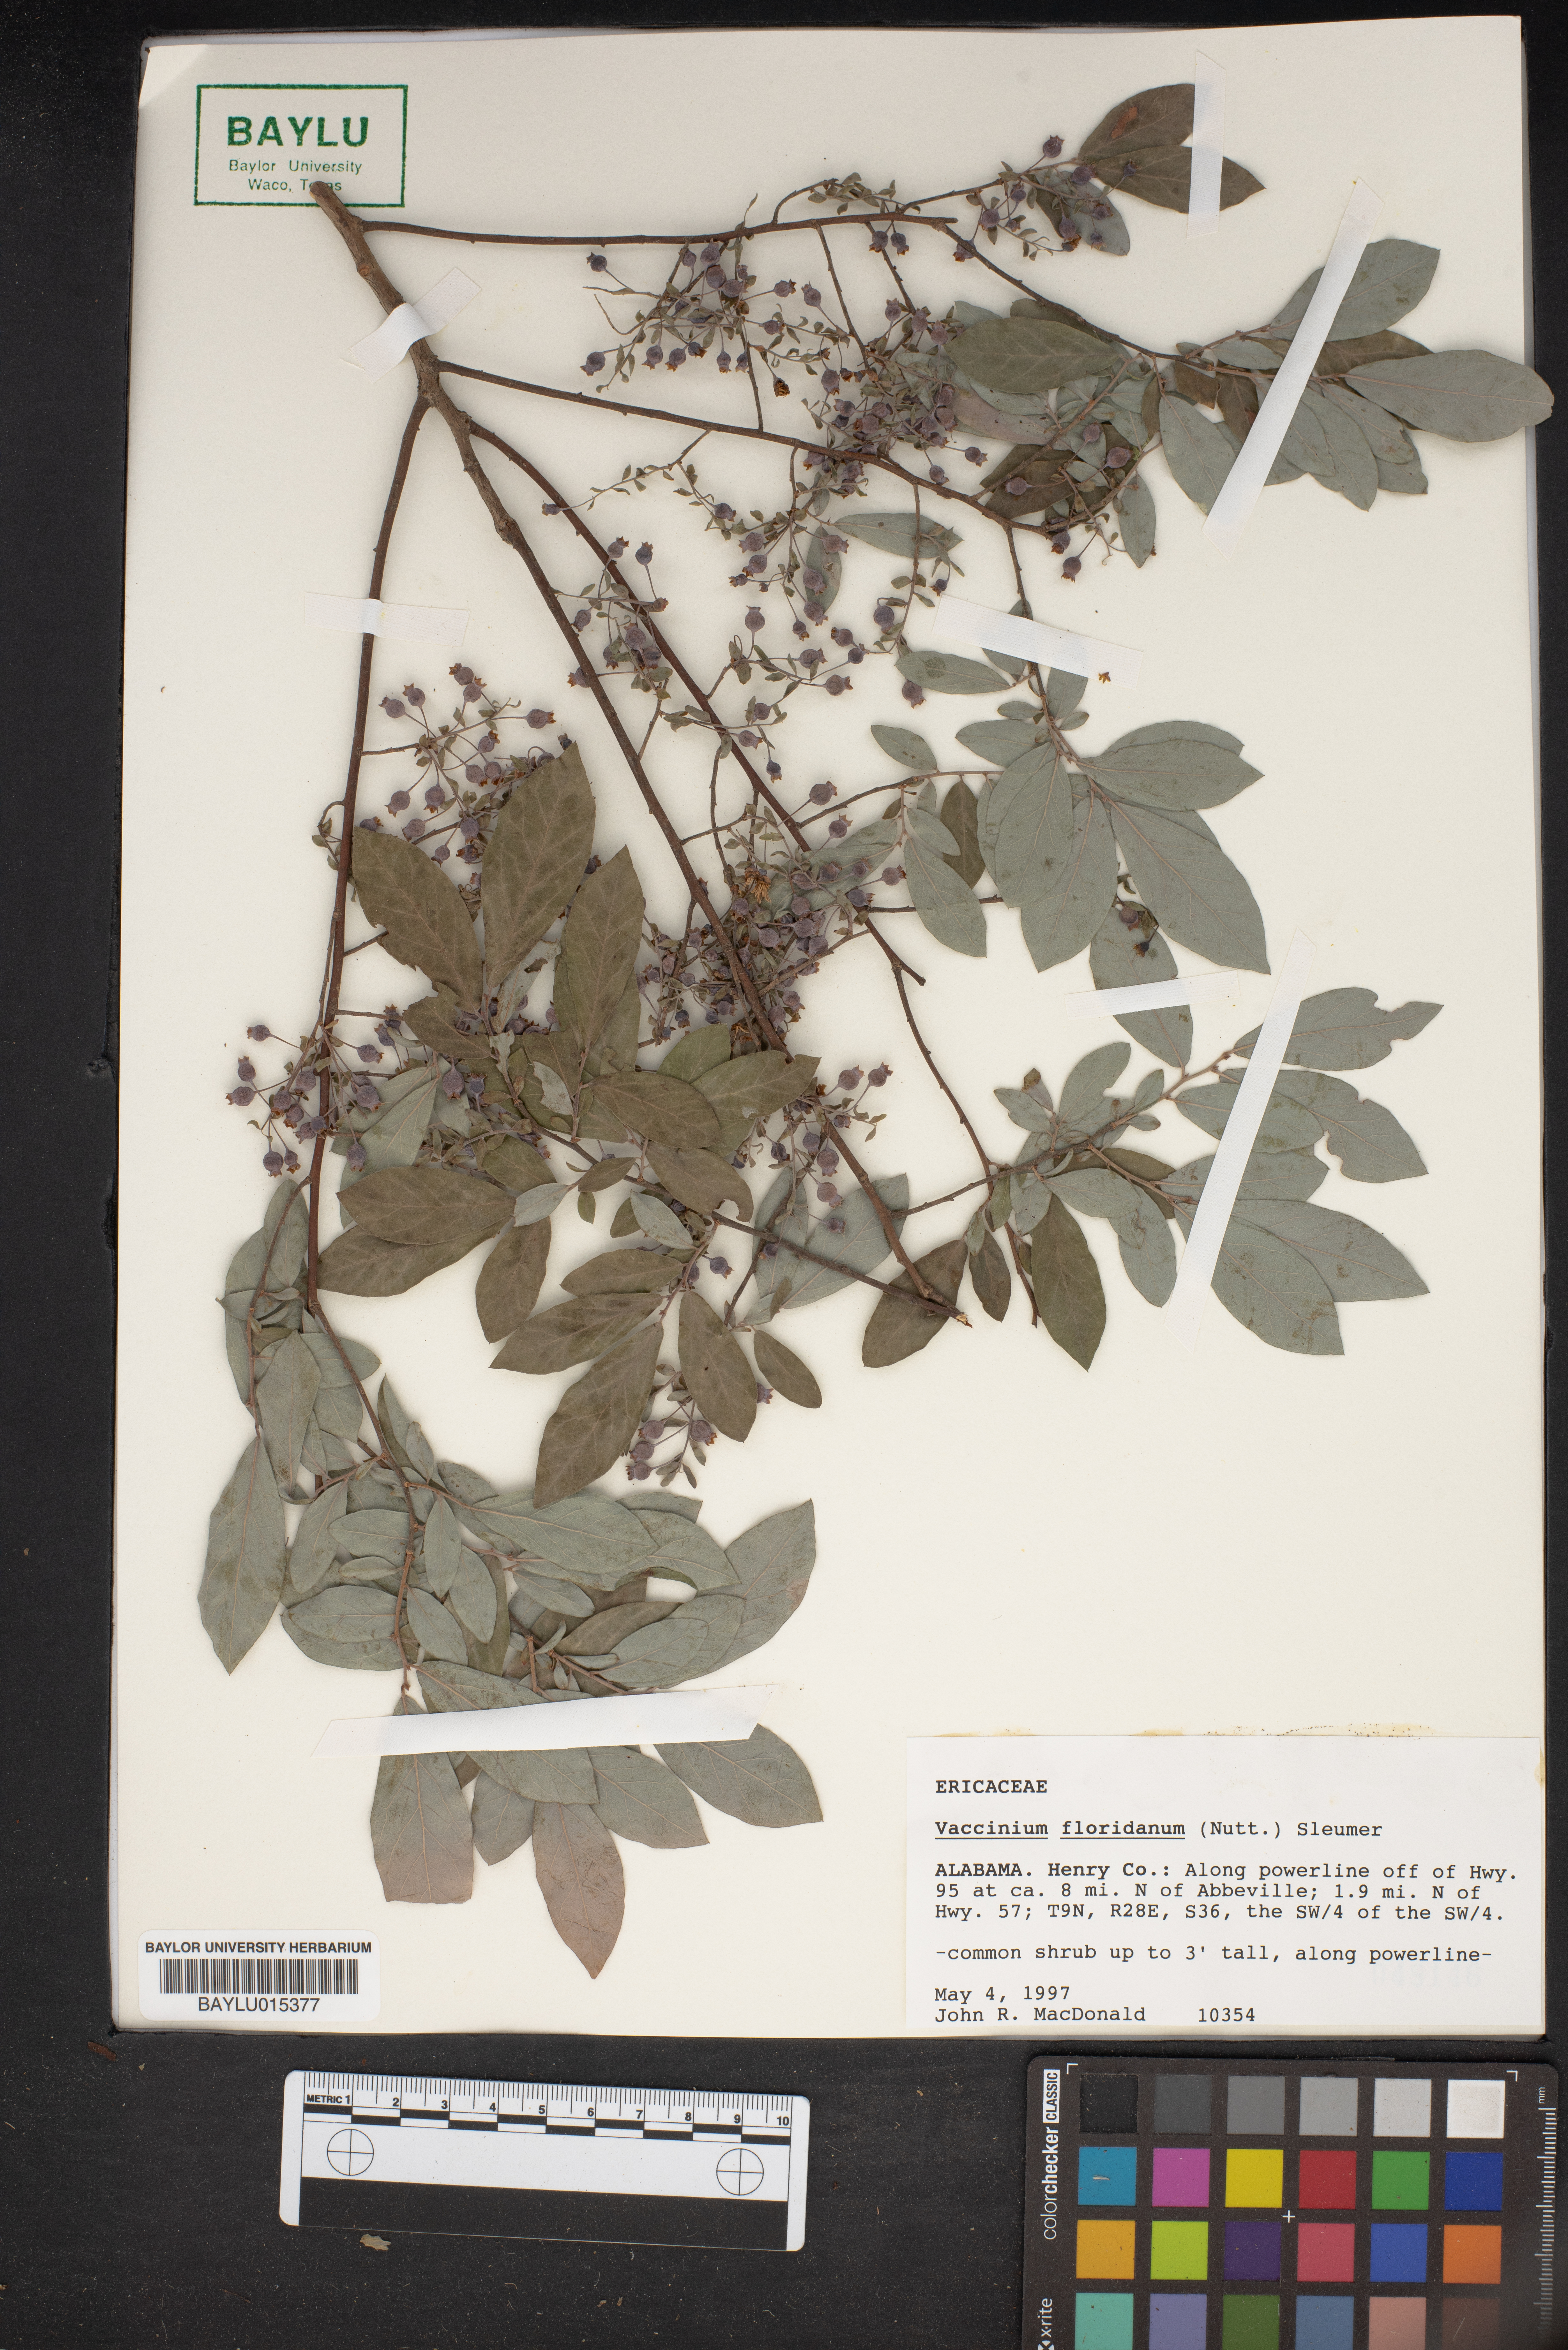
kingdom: Plantae
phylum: Tracheophyta
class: Magnoliopsida
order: Ericales
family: Ericaceae
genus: Vaccinium
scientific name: Vaccinium stamineum
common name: Deerberry
